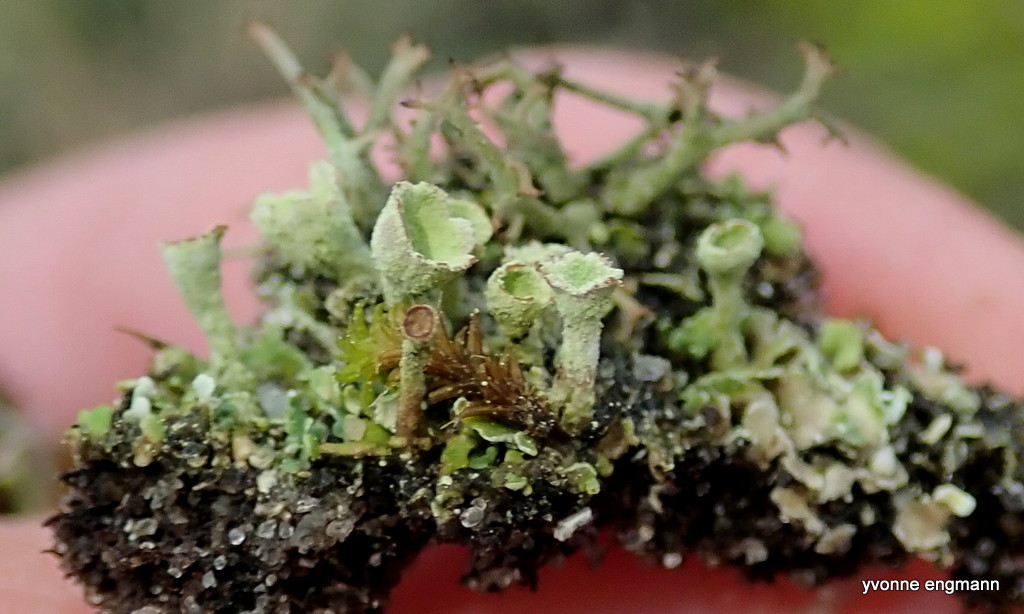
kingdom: Fungi
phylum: Ascomycota
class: Lecanoromycetes
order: Lecanorales
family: Cladoniaceae
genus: Cladonia
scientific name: Cladonia
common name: brungrøn bægerlav
